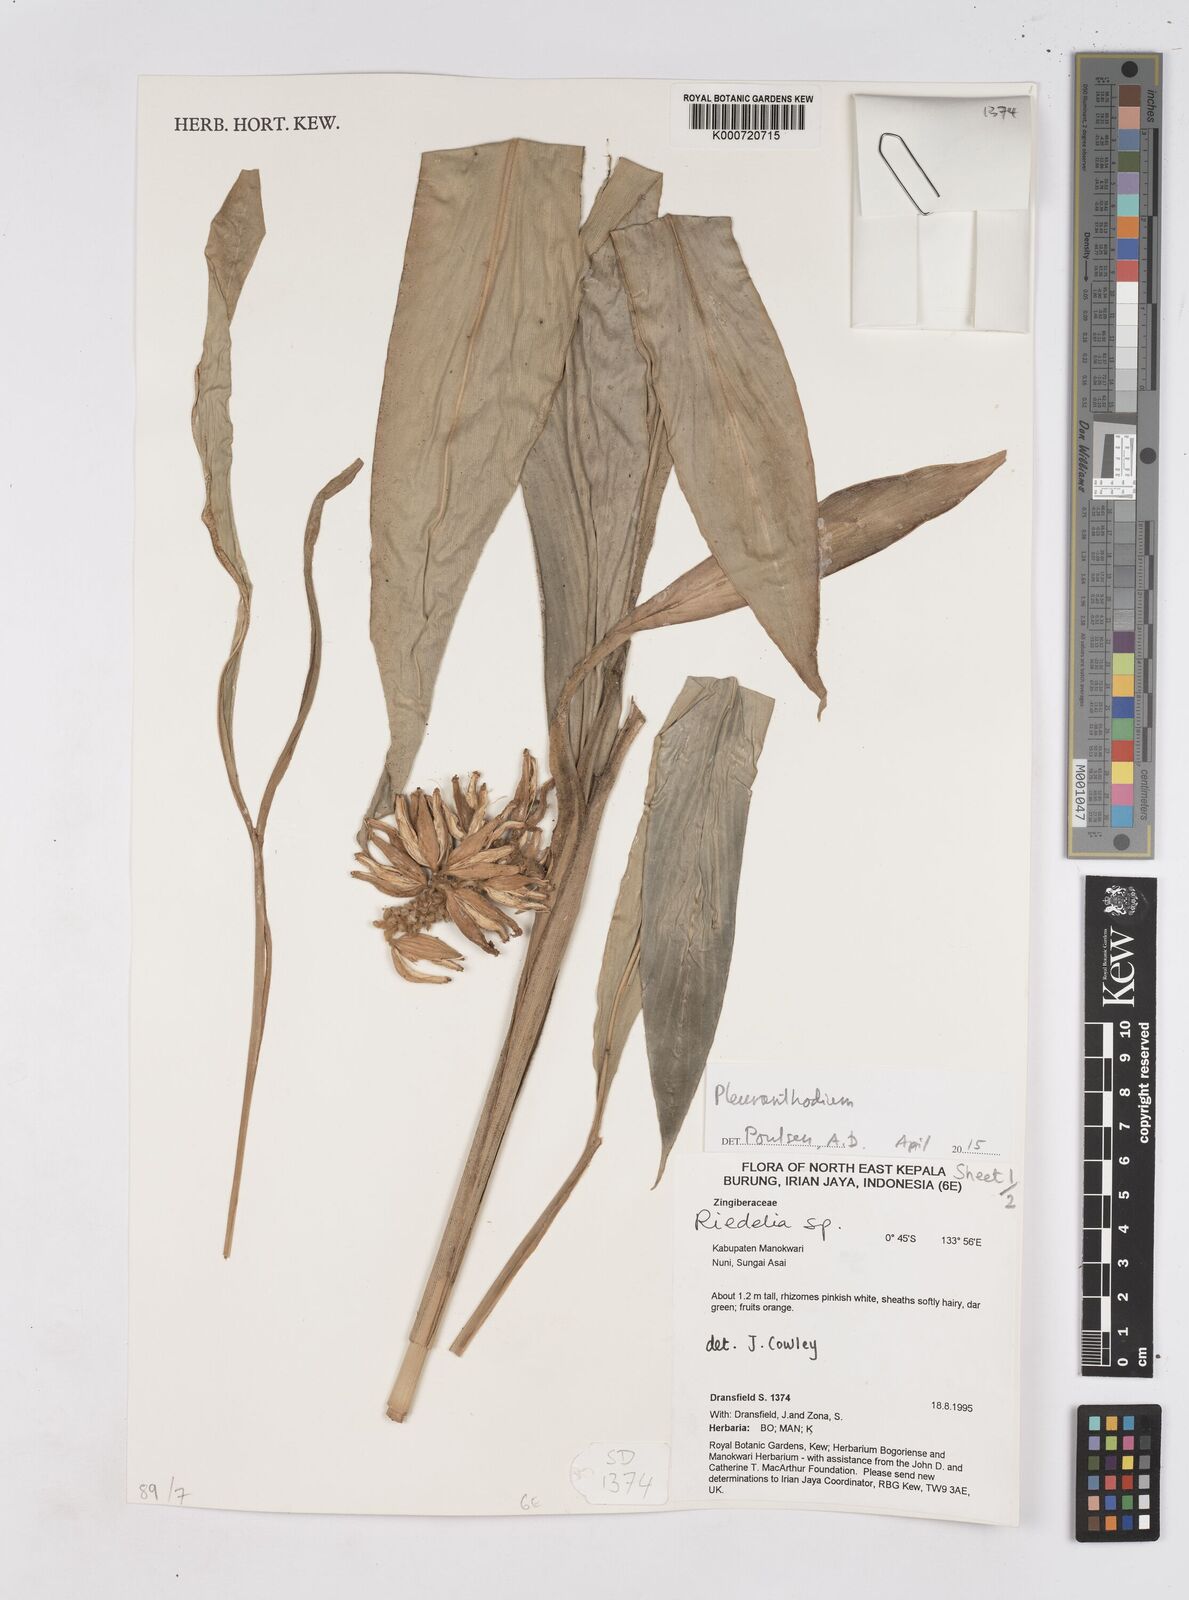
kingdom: Plantae
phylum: Tracheophyta
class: Liliopsida
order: Zingiberales
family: Zingiberaceae
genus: Pleuranthodium
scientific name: Pleuranthodium
